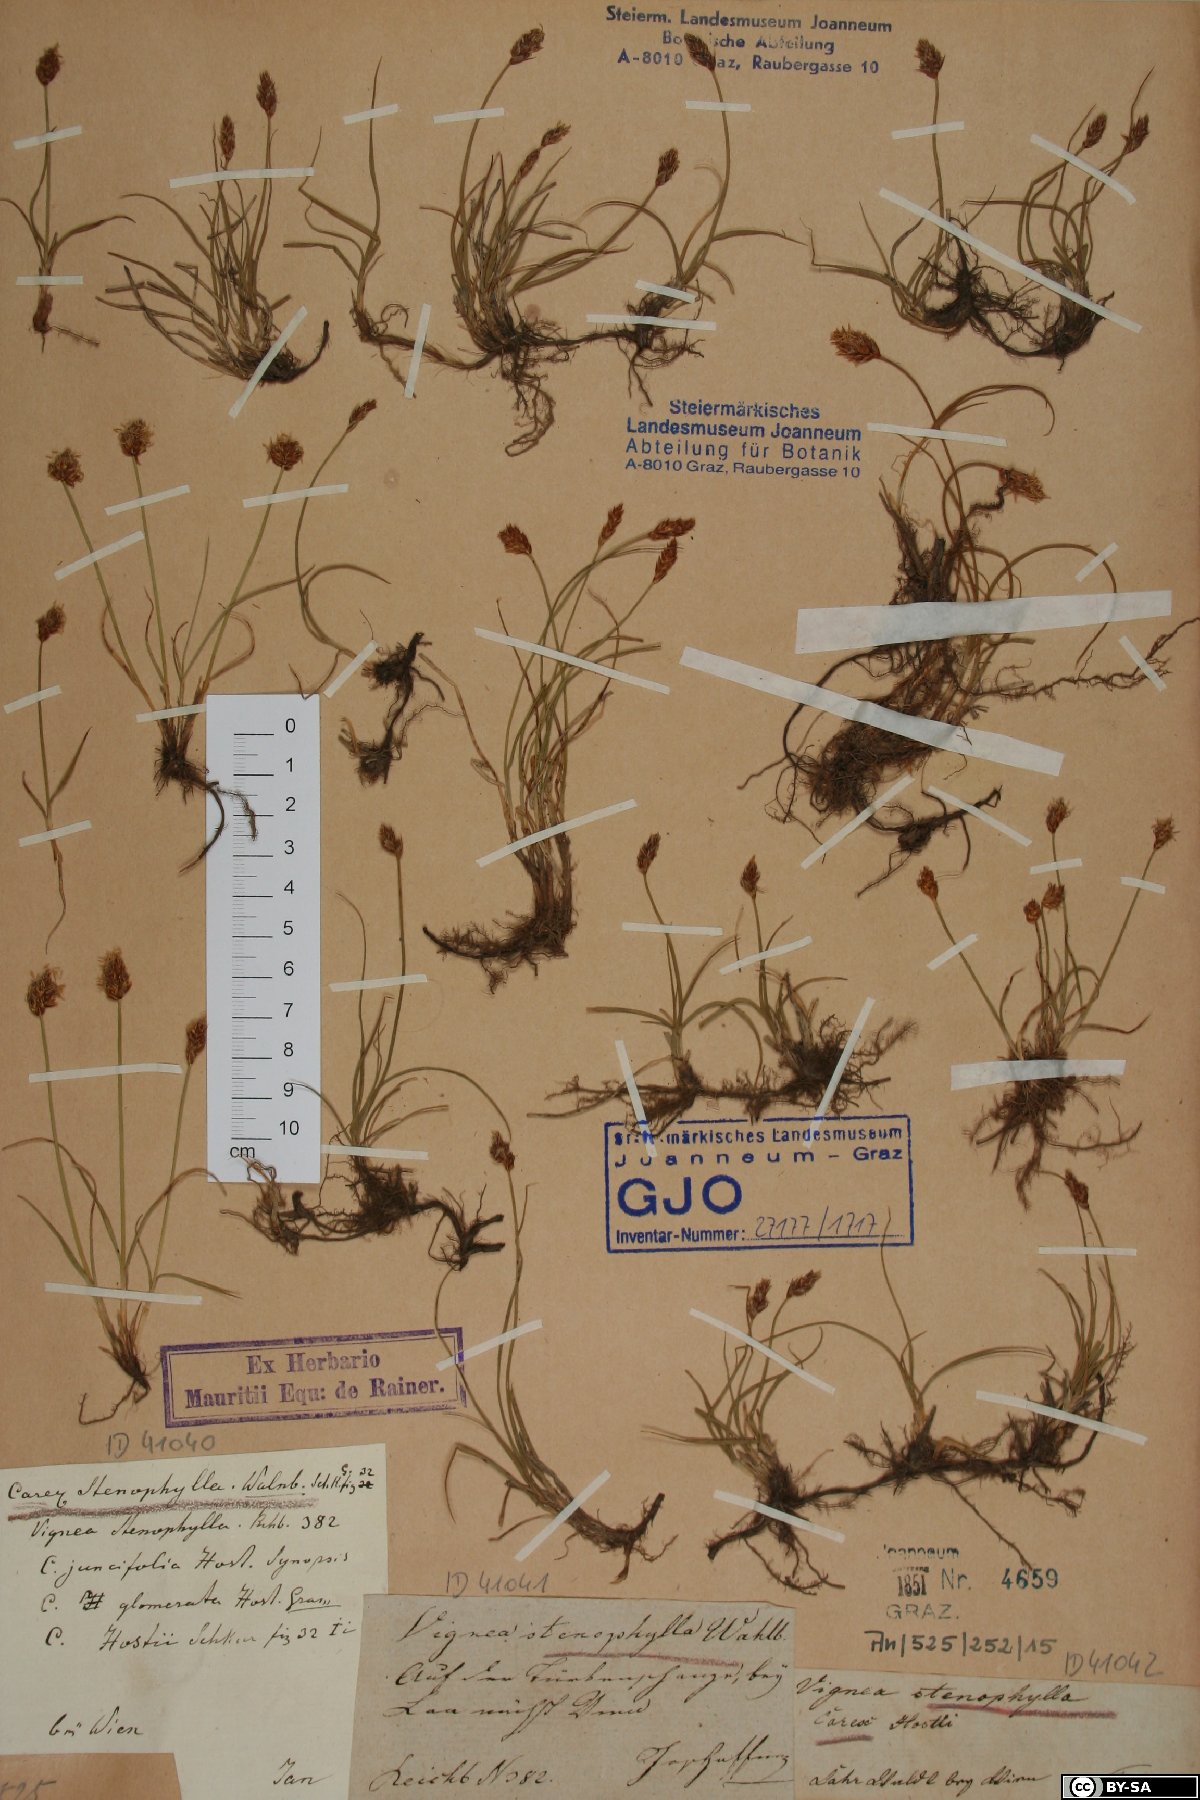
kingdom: Plantae
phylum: Tracheophyta
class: Liliopsida
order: Poales
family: Cyperaceae
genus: Carex
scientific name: Carex stenophylla
